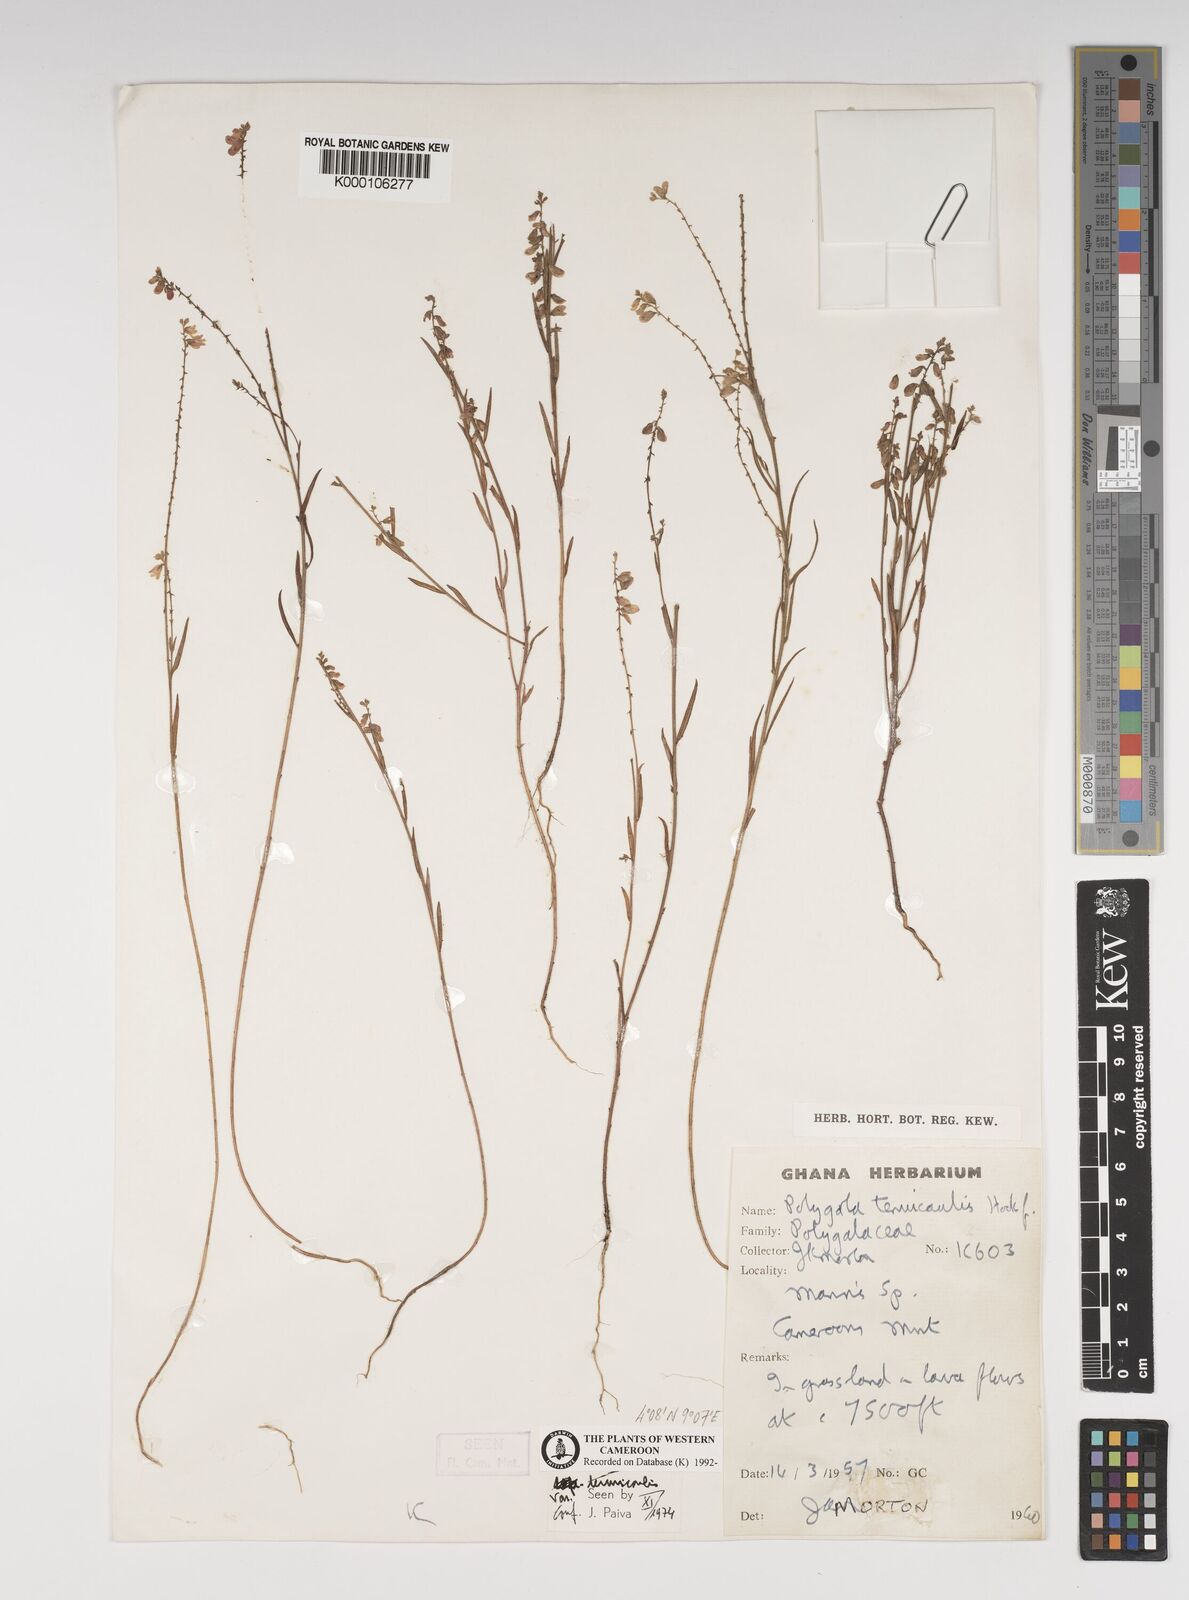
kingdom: Plantae
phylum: Tracheophyta
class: Magnoliopsida
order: Fabales
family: Polygalaceae
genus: Polygala
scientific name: Polygala tenuicaulis
